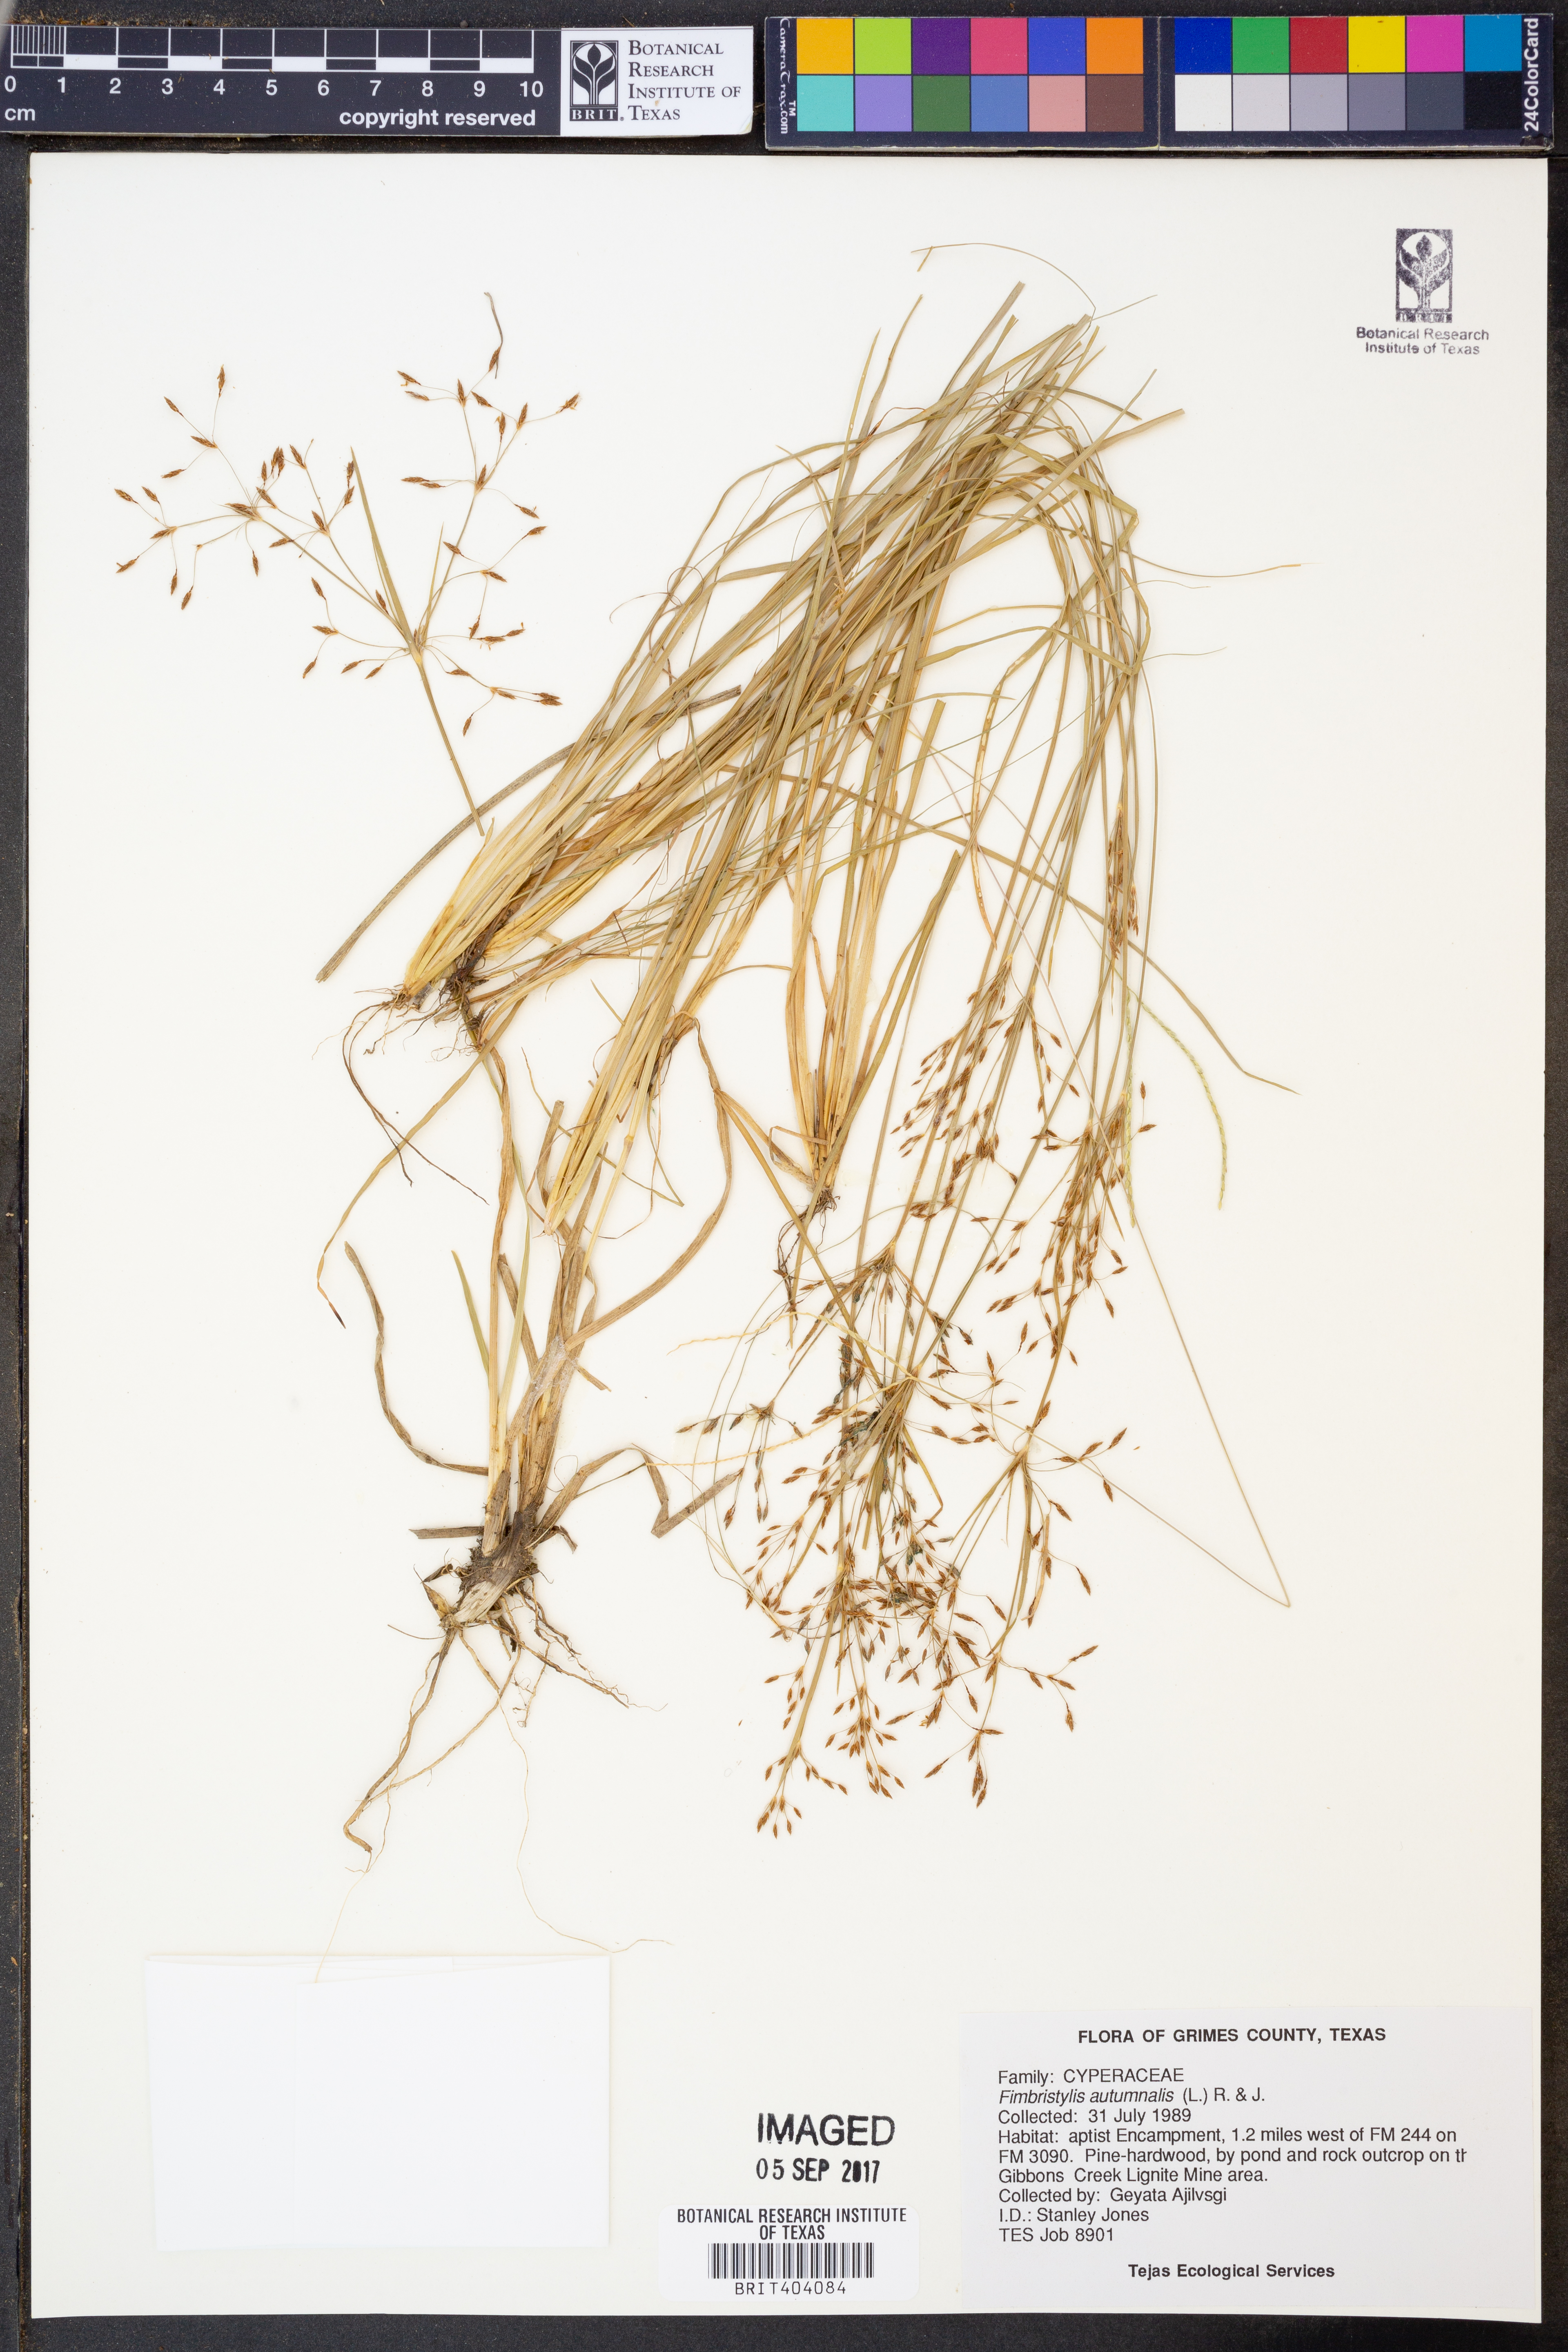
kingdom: Plantae
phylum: Tracheophyta
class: Liliopsida
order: Poales
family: Cyperaceae
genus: Fimbristylis
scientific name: Fimbristylis autumnalis
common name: Slender fimbristylis
